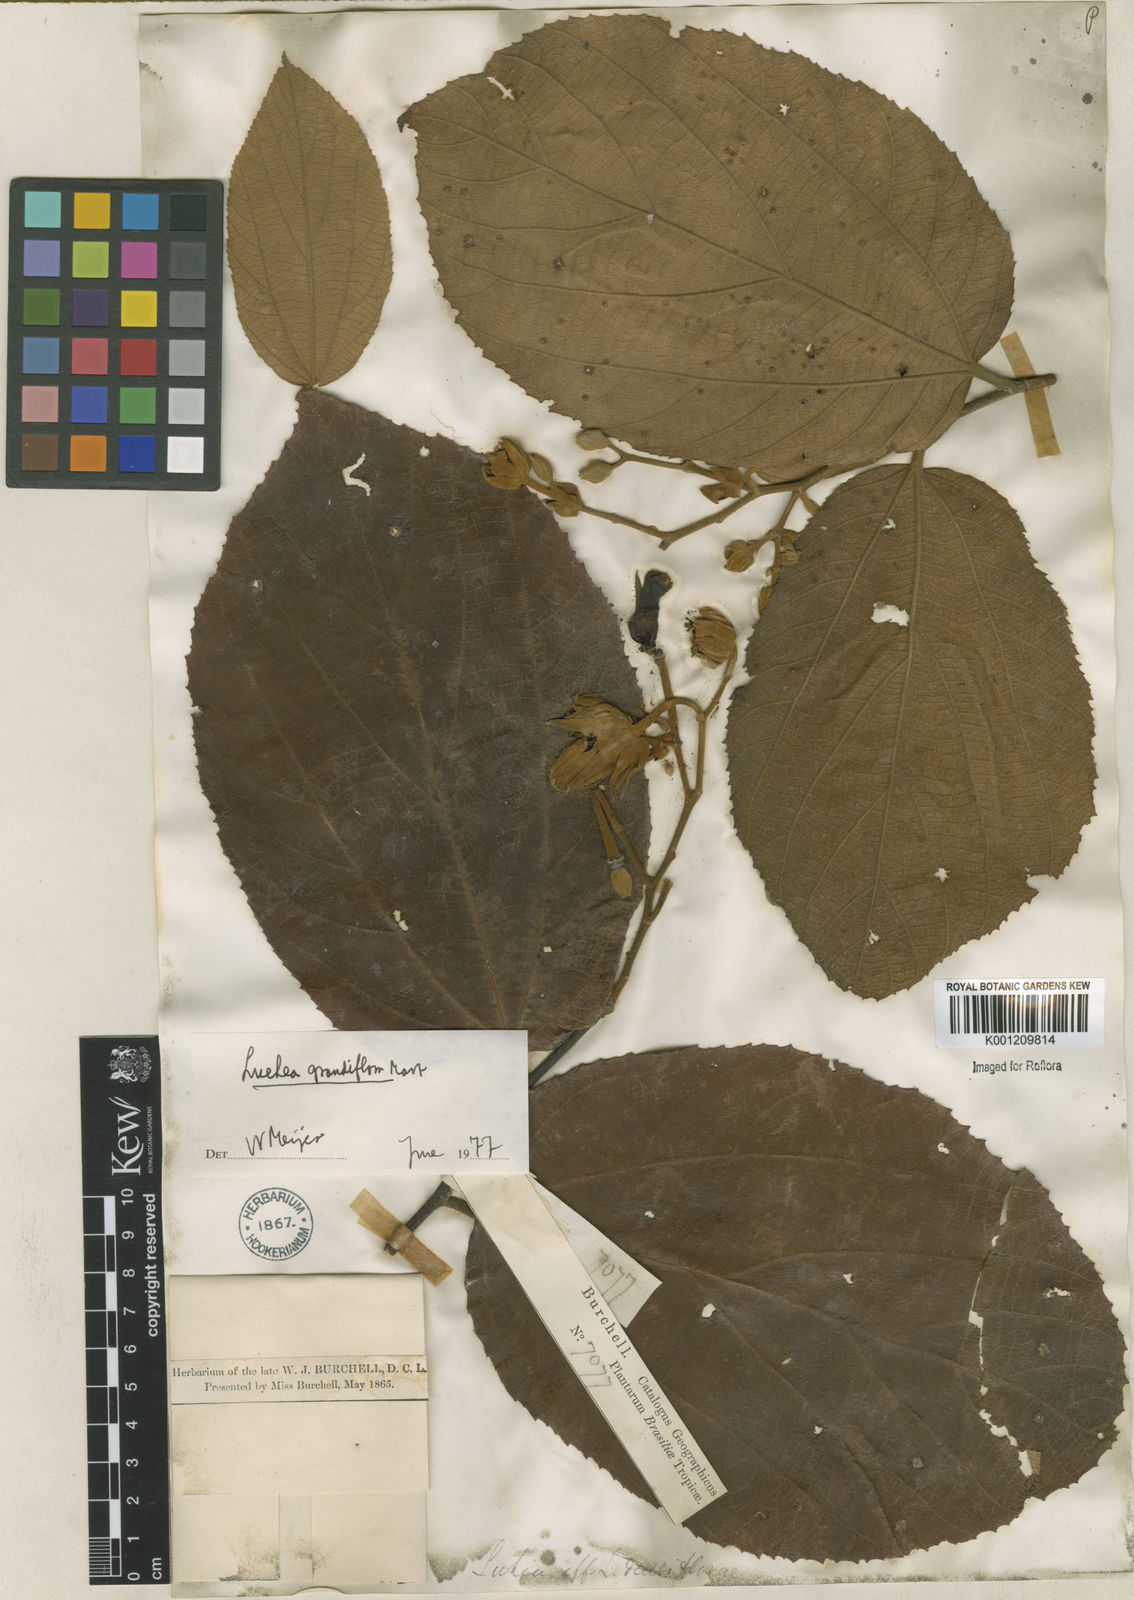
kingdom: Plantae
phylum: Tracheophyta
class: Magnoliopsida
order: Malvales
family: Malvaceae
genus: Luehea
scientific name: Luehea grandiflora
